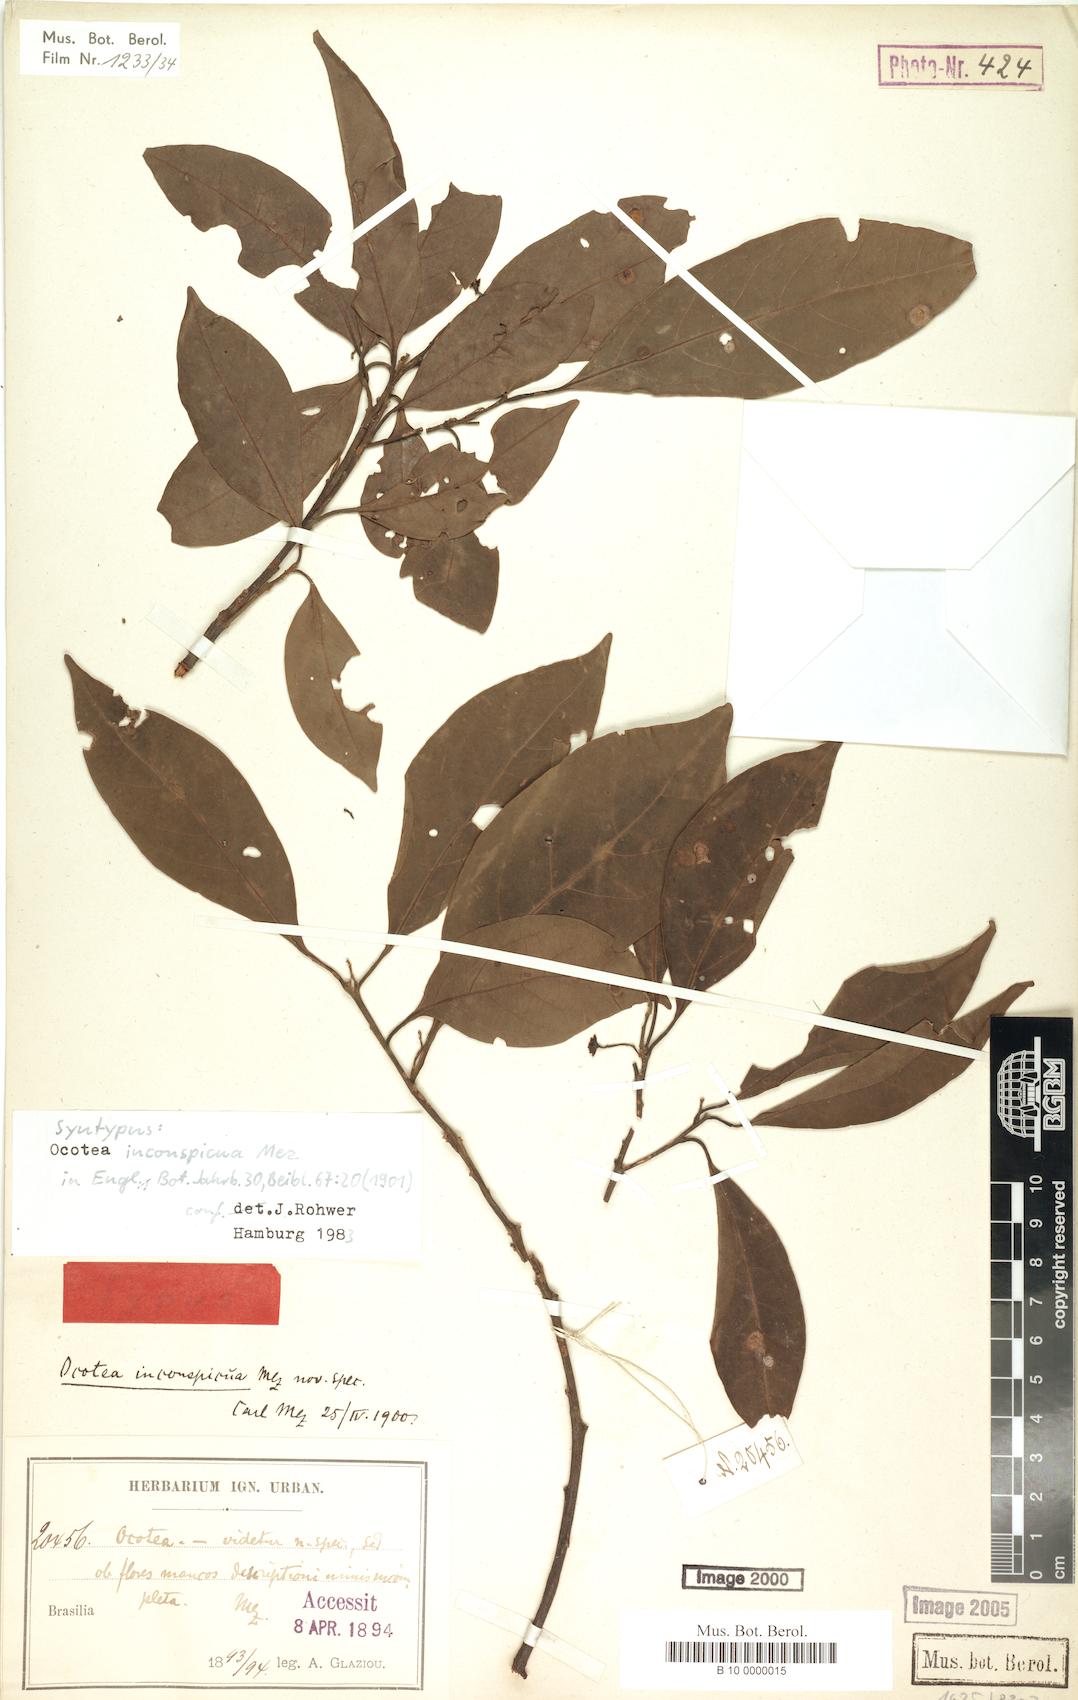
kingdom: Plantae
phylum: Tracheophyta
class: Magnoliopsida
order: Laurales
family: Lauraceae
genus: Ocotea
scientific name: Ocotea lancifolia
